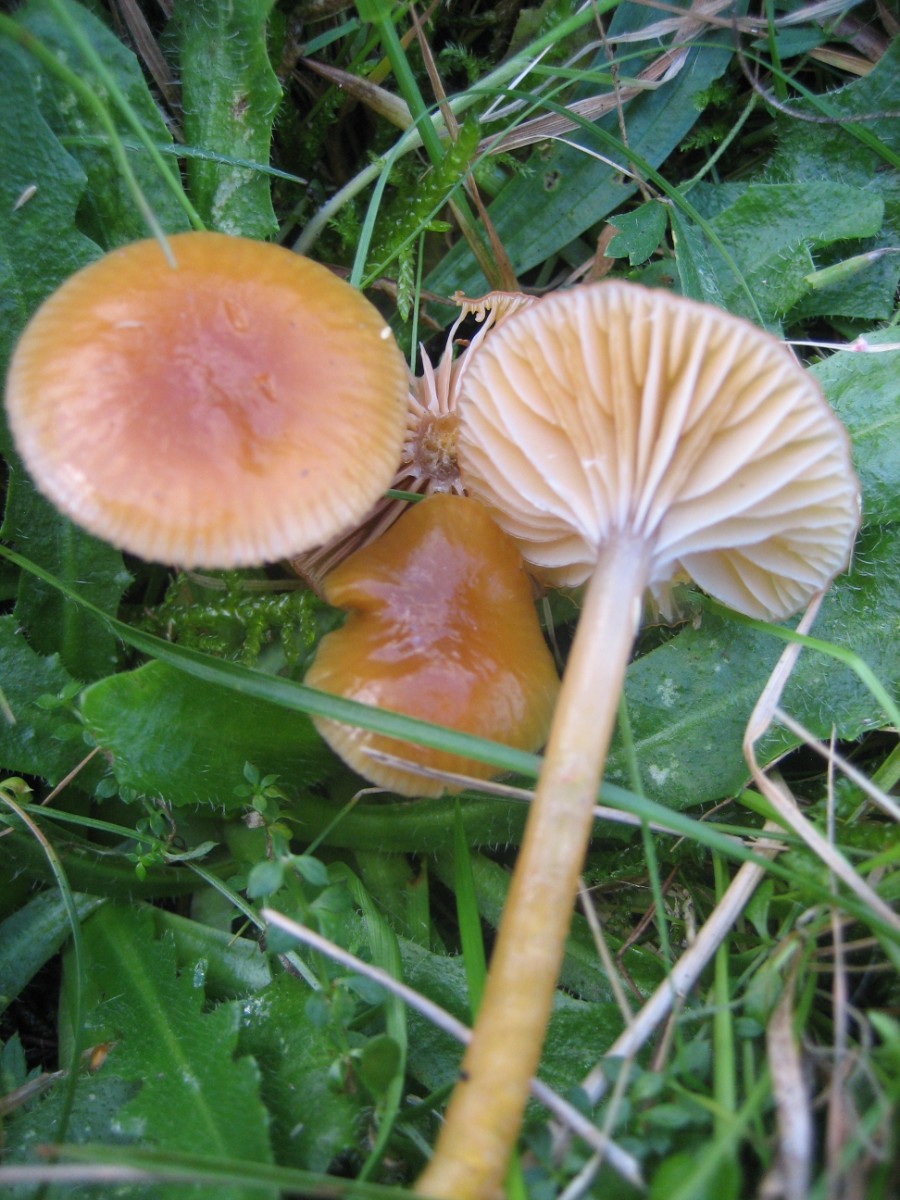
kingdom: Fungi
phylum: Basidiomycota
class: Agaricomycetes
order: Agaricales
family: Hygrophoraceae
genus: Gliophorus
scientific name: Gliophorus laetus
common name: brusk-vokshat
